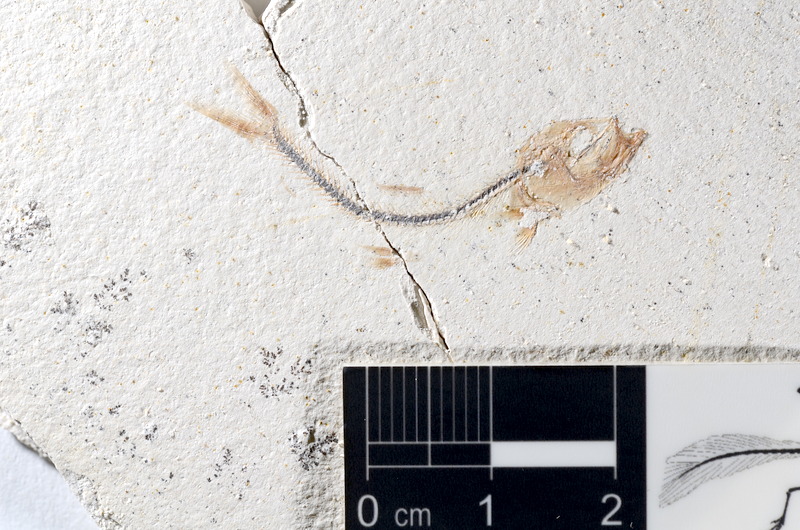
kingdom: Animalia
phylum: Chordata
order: Salmoniformes
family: Orthogonikleithridae
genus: Orthogonikleithrus
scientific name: Orthogonikleithrus hoelli
